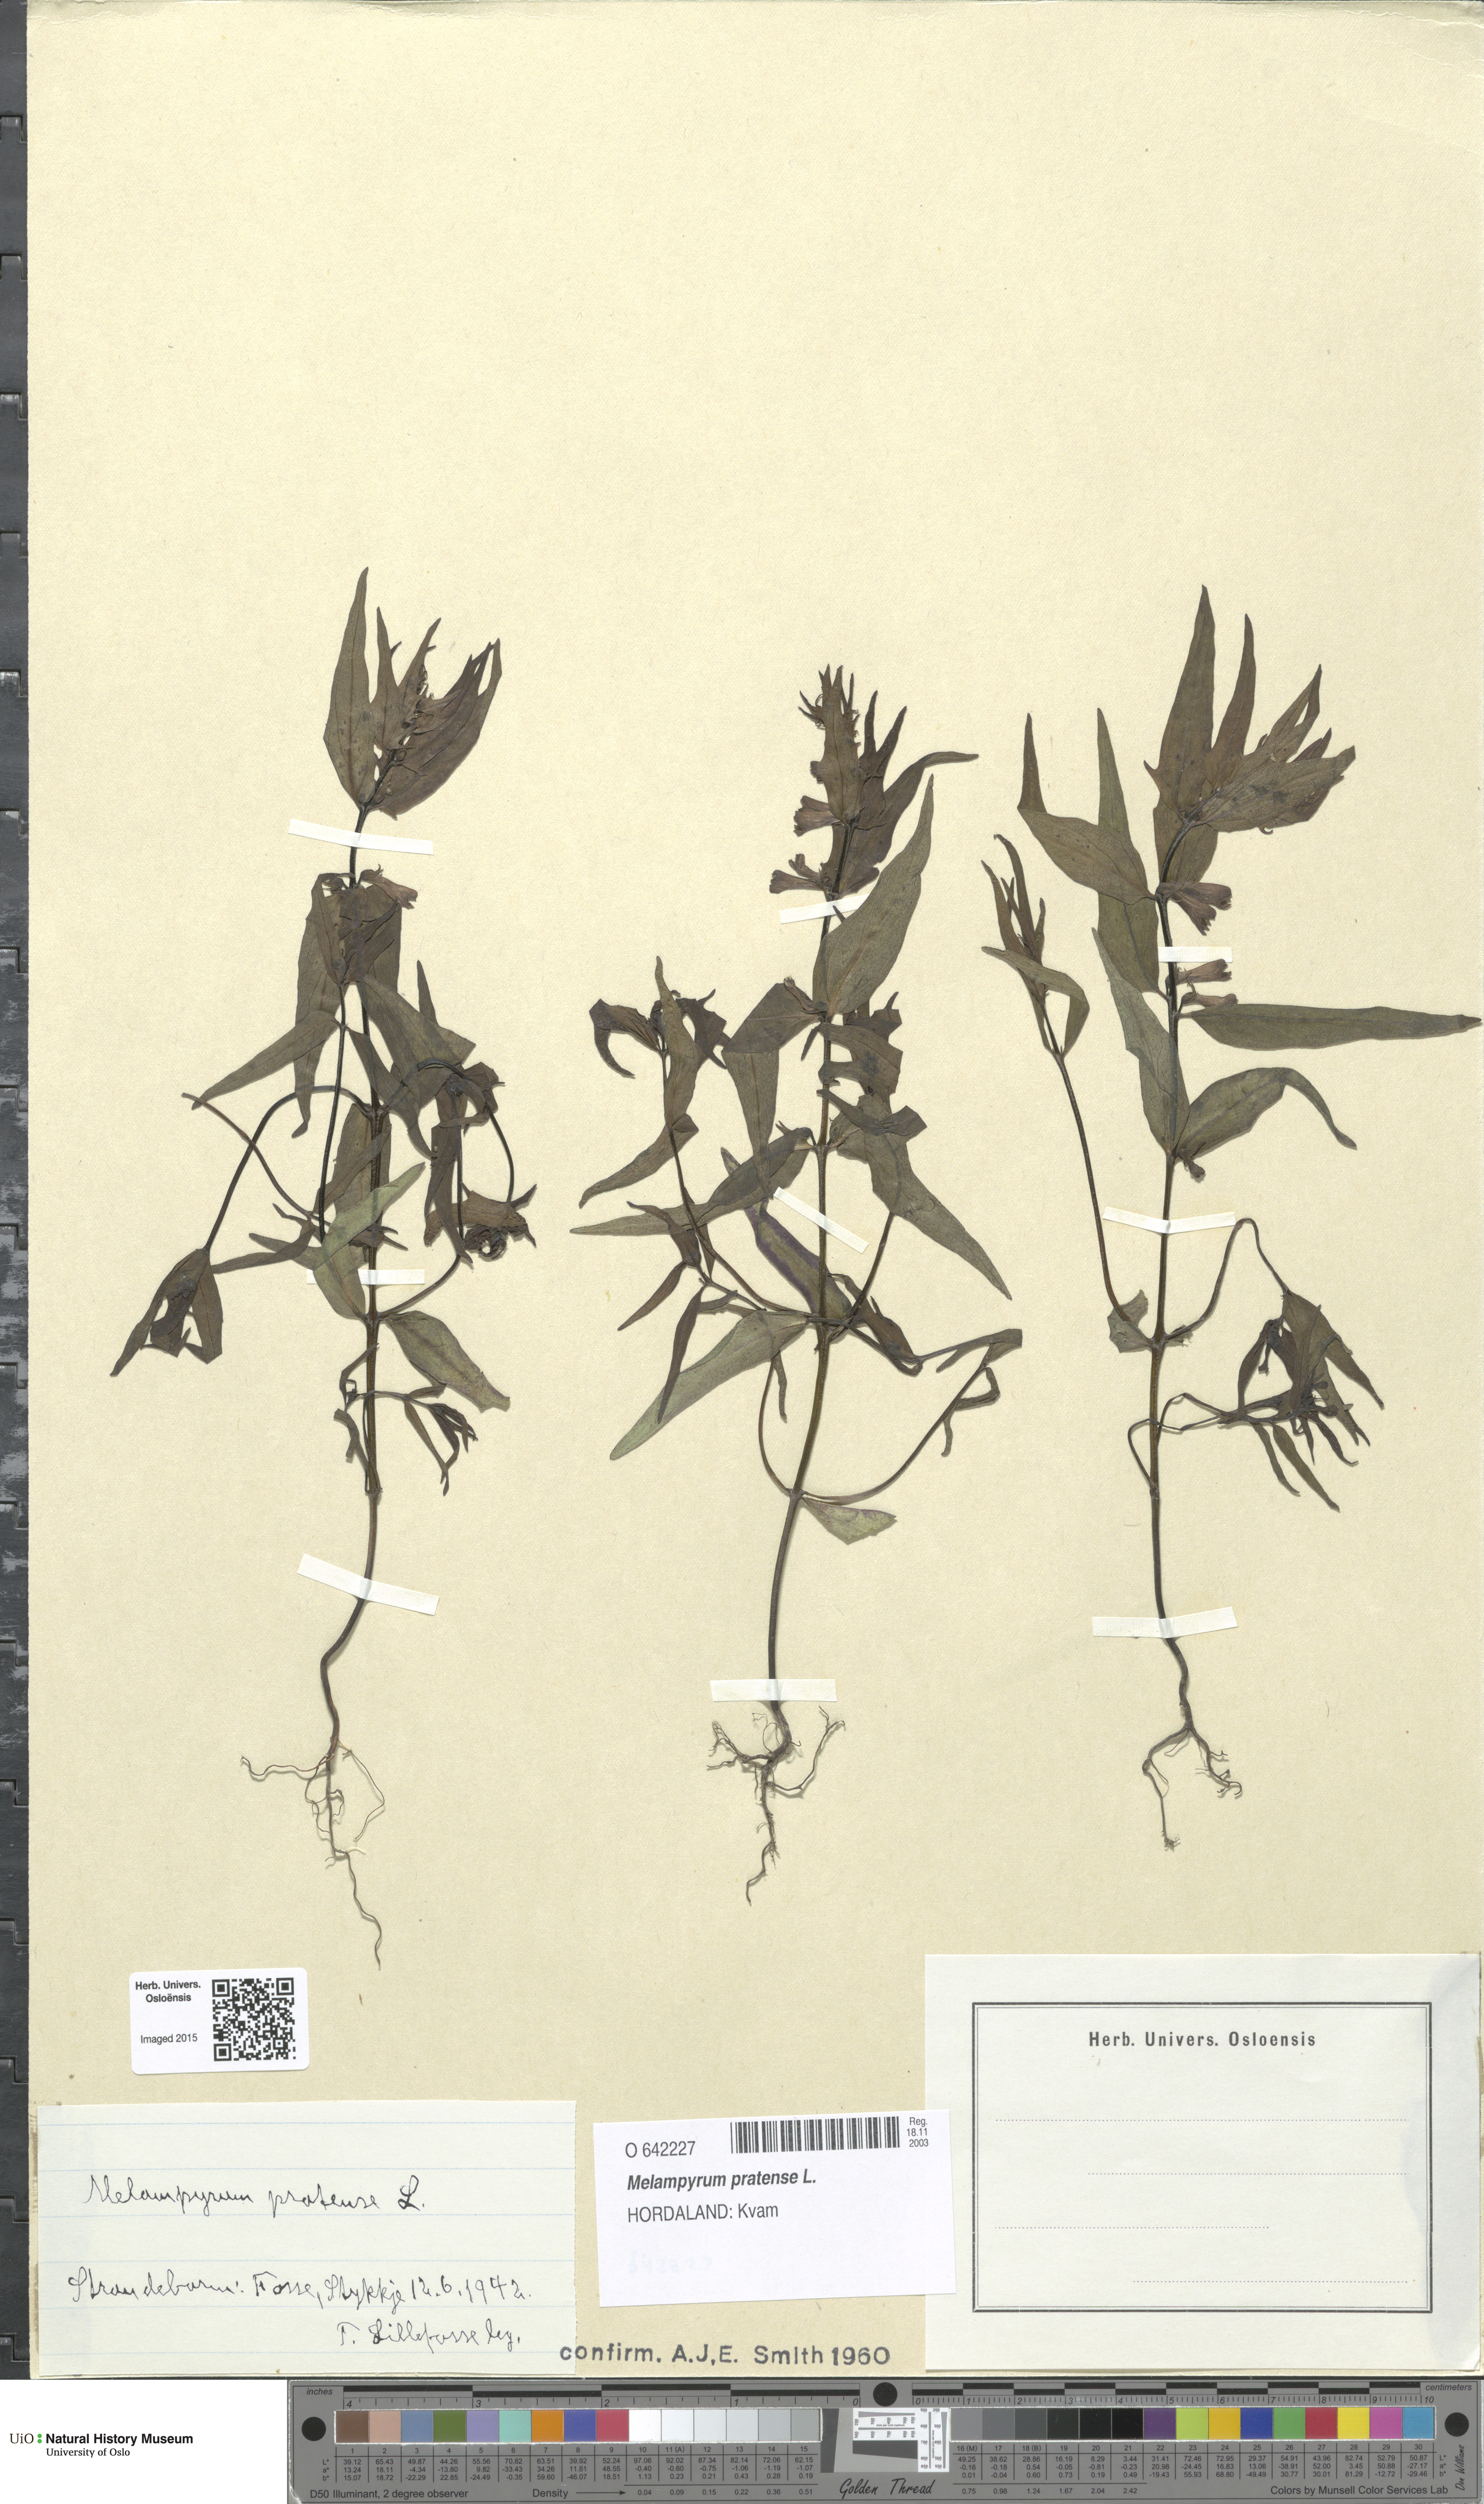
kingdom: Plantae
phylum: Tracheophyta
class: Magnoliopsida
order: Lamiales
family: Orobanchaceae
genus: Melampyrum
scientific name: Melampyrum pratense
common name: Common cow-wheat
